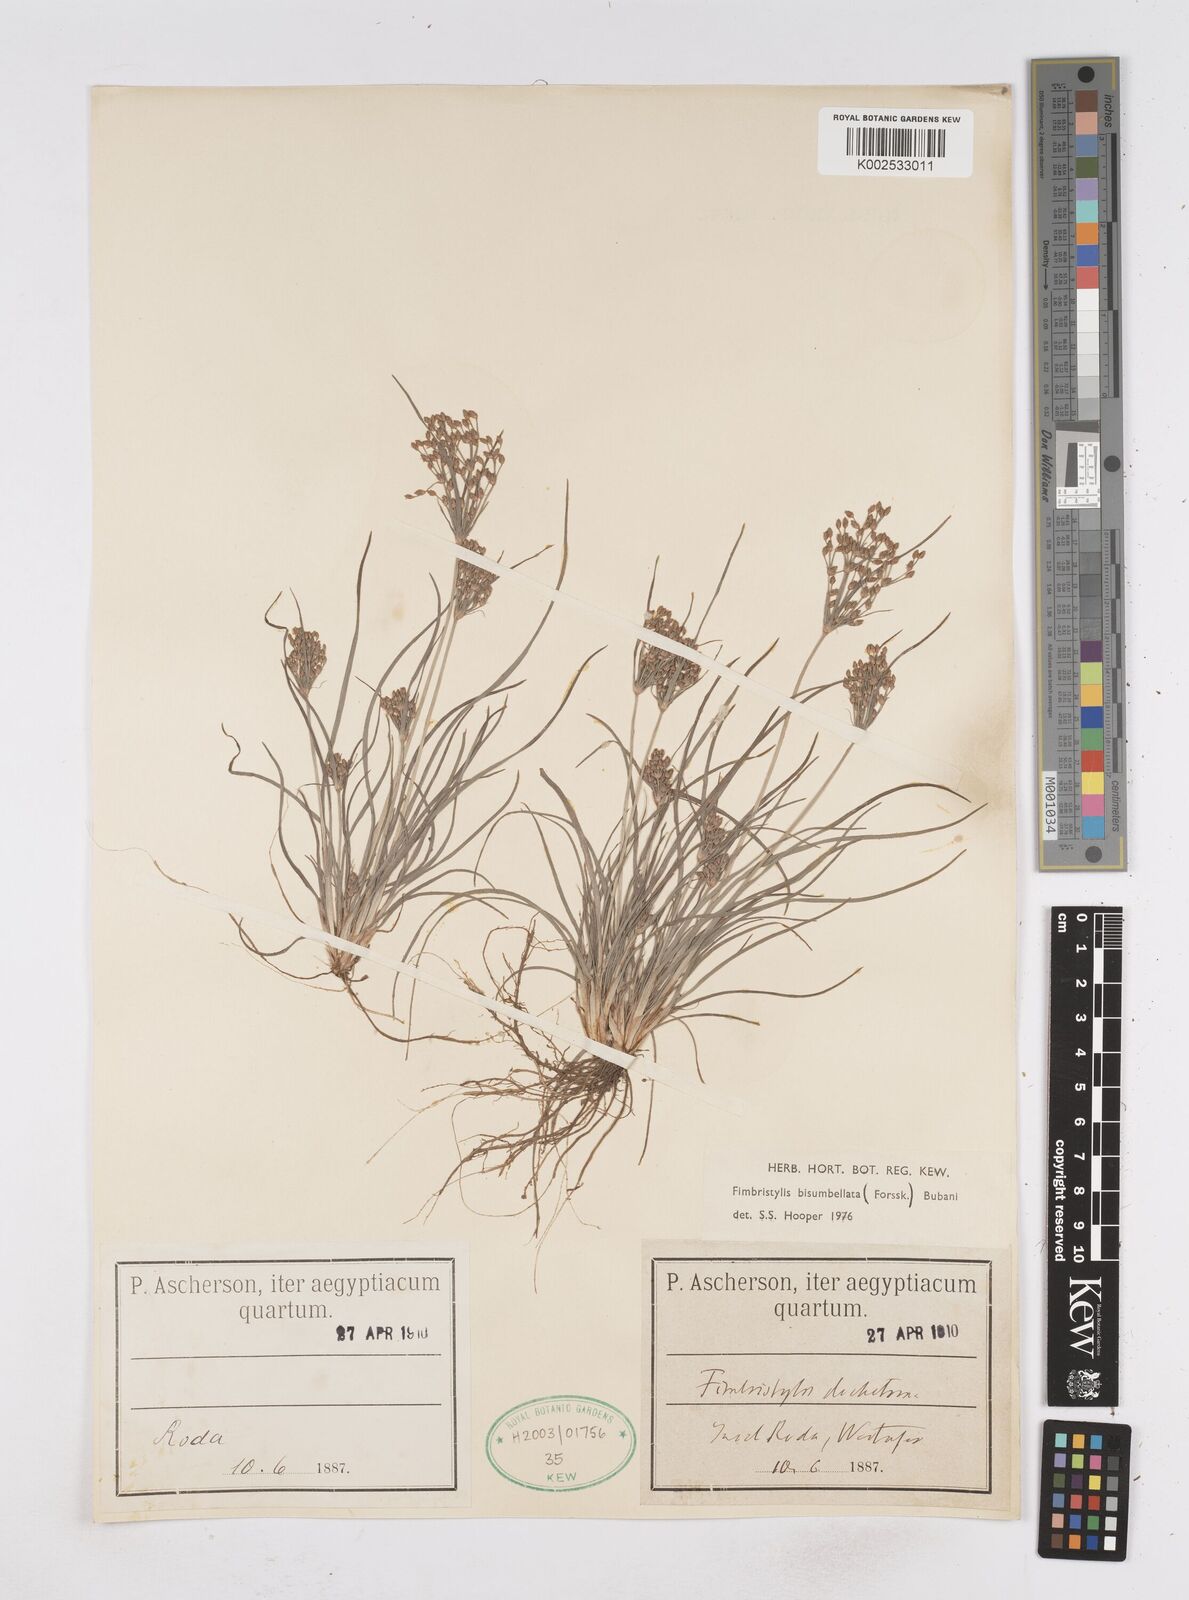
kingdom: Plantae
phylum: Tracheophyta
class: Liliopsida
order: Poales
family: Cyperaceae
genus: Fimbristylis
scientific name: Fimbristylis bisumbellata
